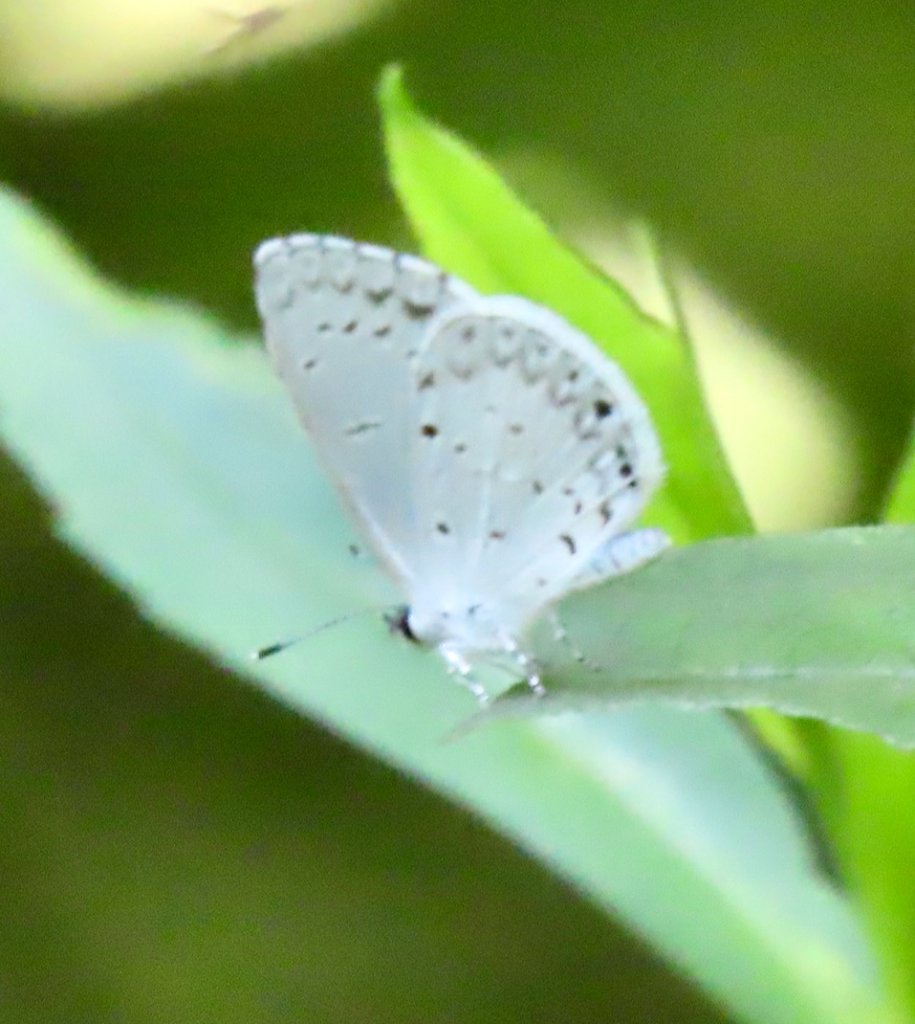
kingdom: Animalia
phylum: Arthropoda
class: Insecta
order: Lepidoptera
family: Lycaenidae
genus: Cyaniris
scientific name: Cyaniris neglecta
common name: Summer Azure
